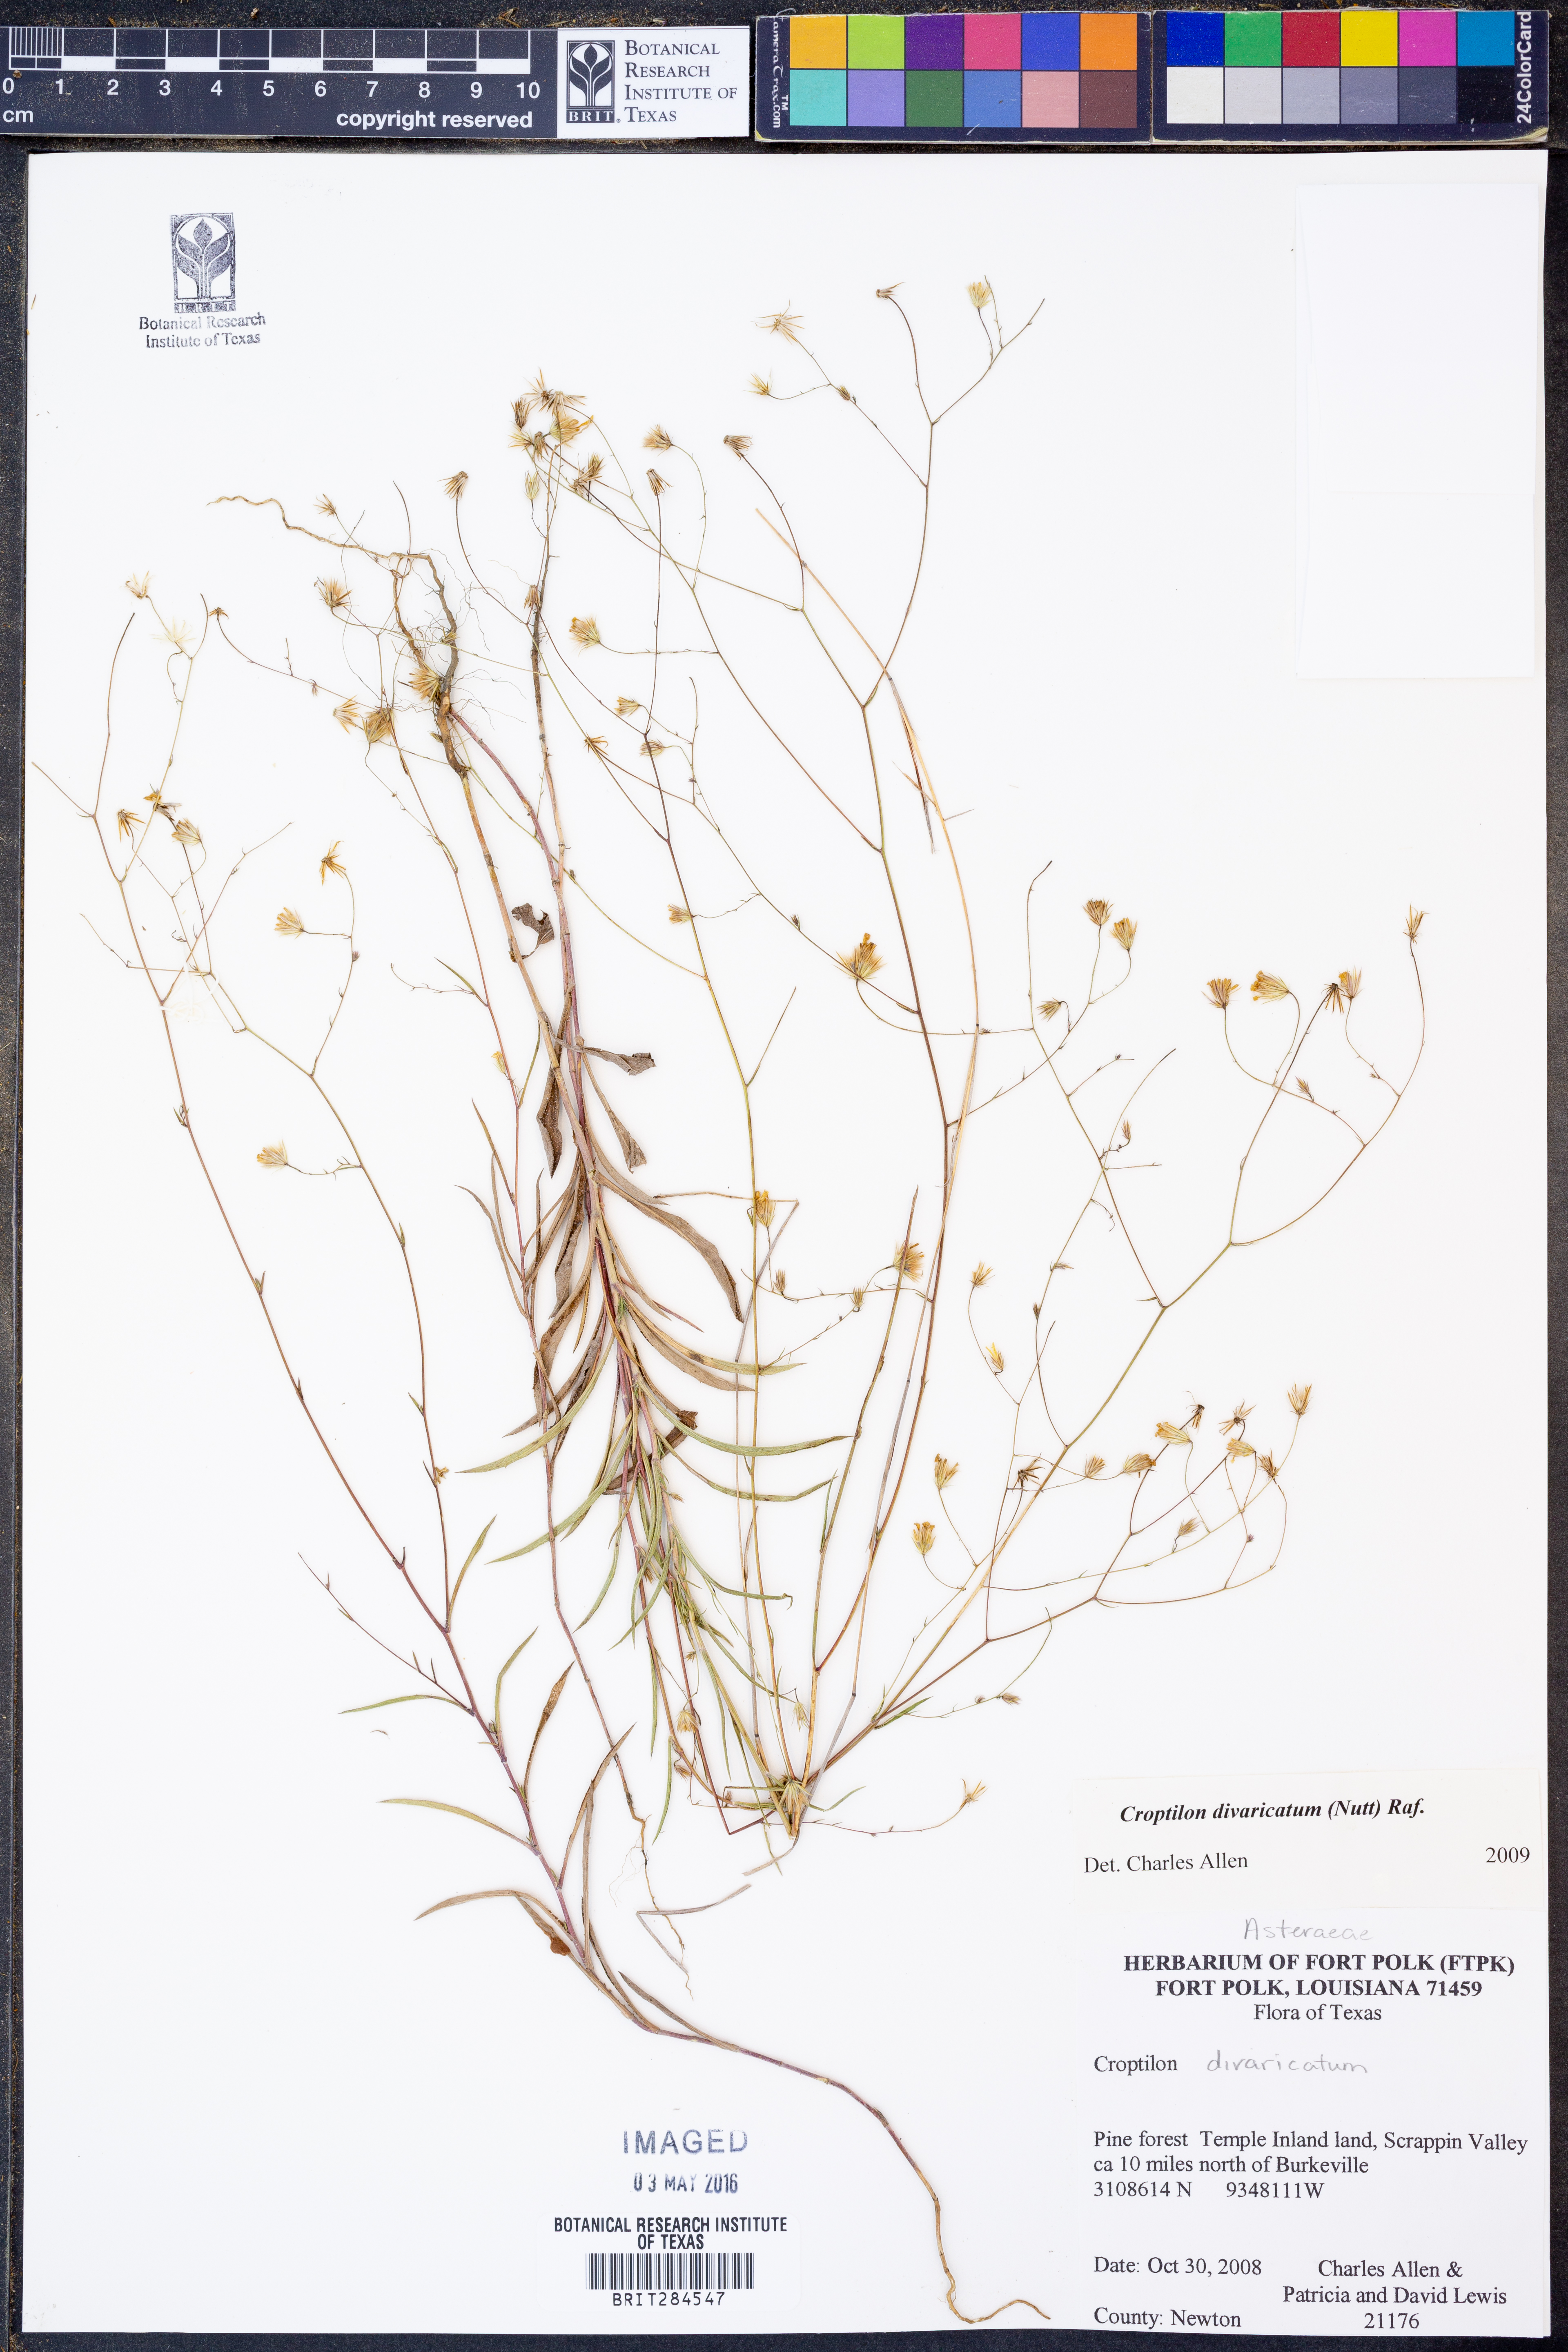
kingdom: Plantae
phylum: Tracheophyta
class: Magnoliopsida
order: Asterales
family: Asteraceae
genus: Croptilon
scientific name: Croptilon divaricatum
